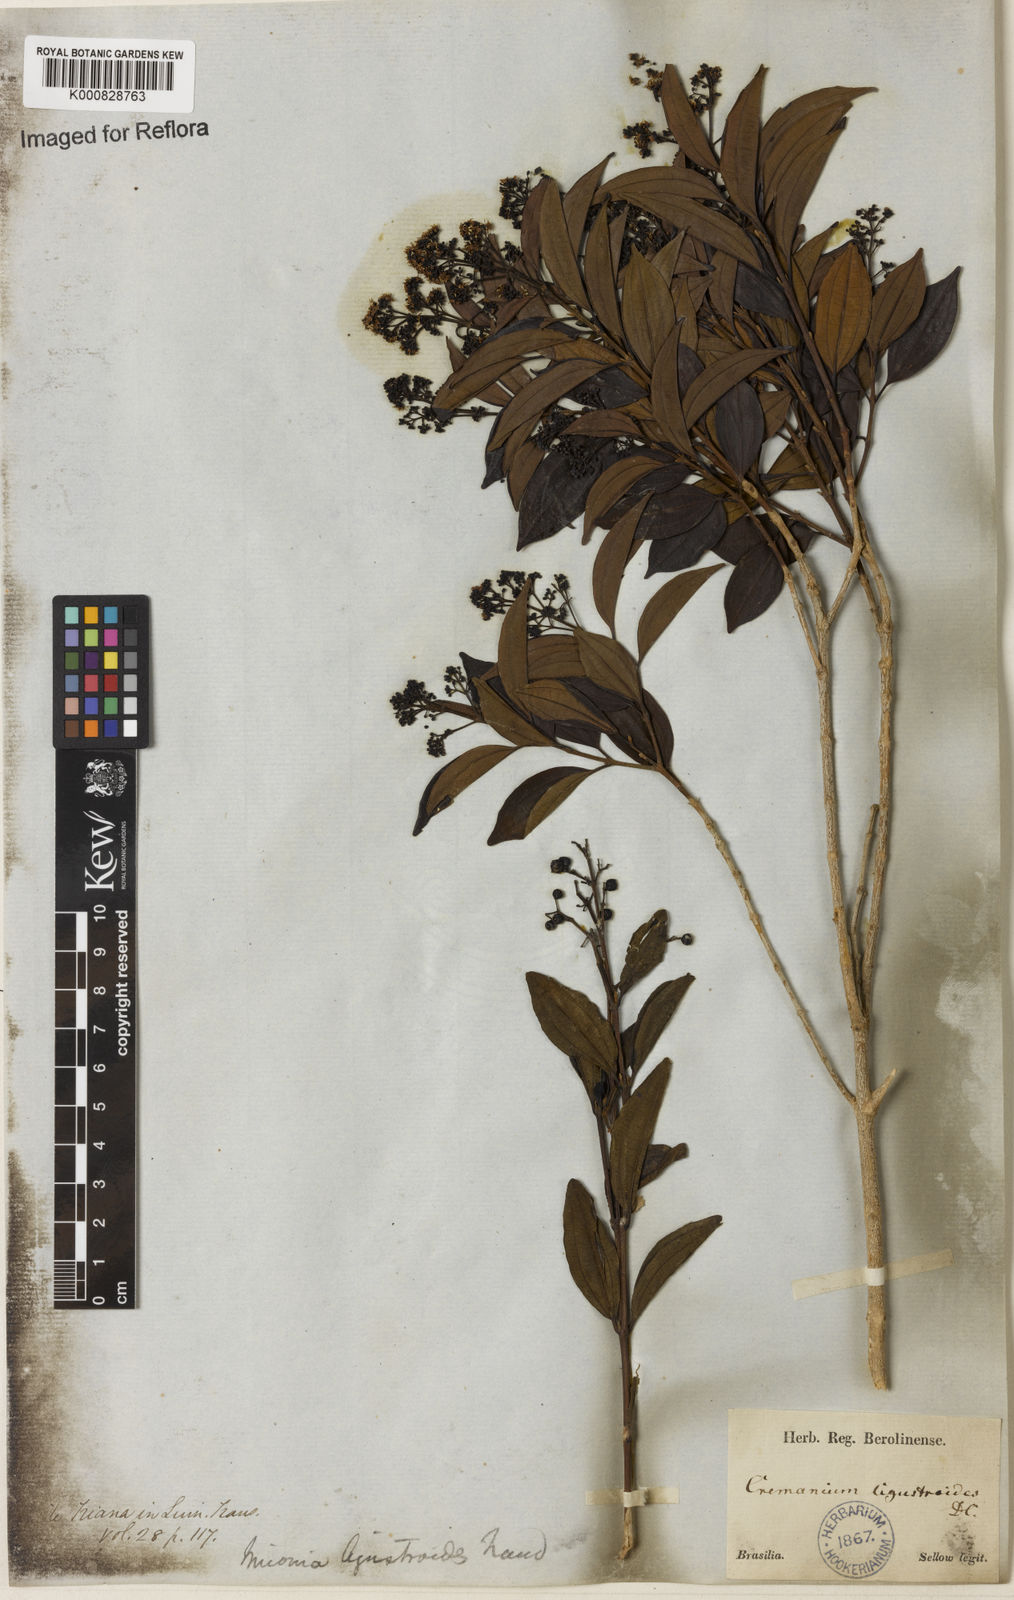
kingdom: Plantae
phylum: Tracheophyta
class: Magnoliopsida
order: Myrtales
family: Melastomataceae
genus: Miconia
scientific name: Miconia ligustroides
